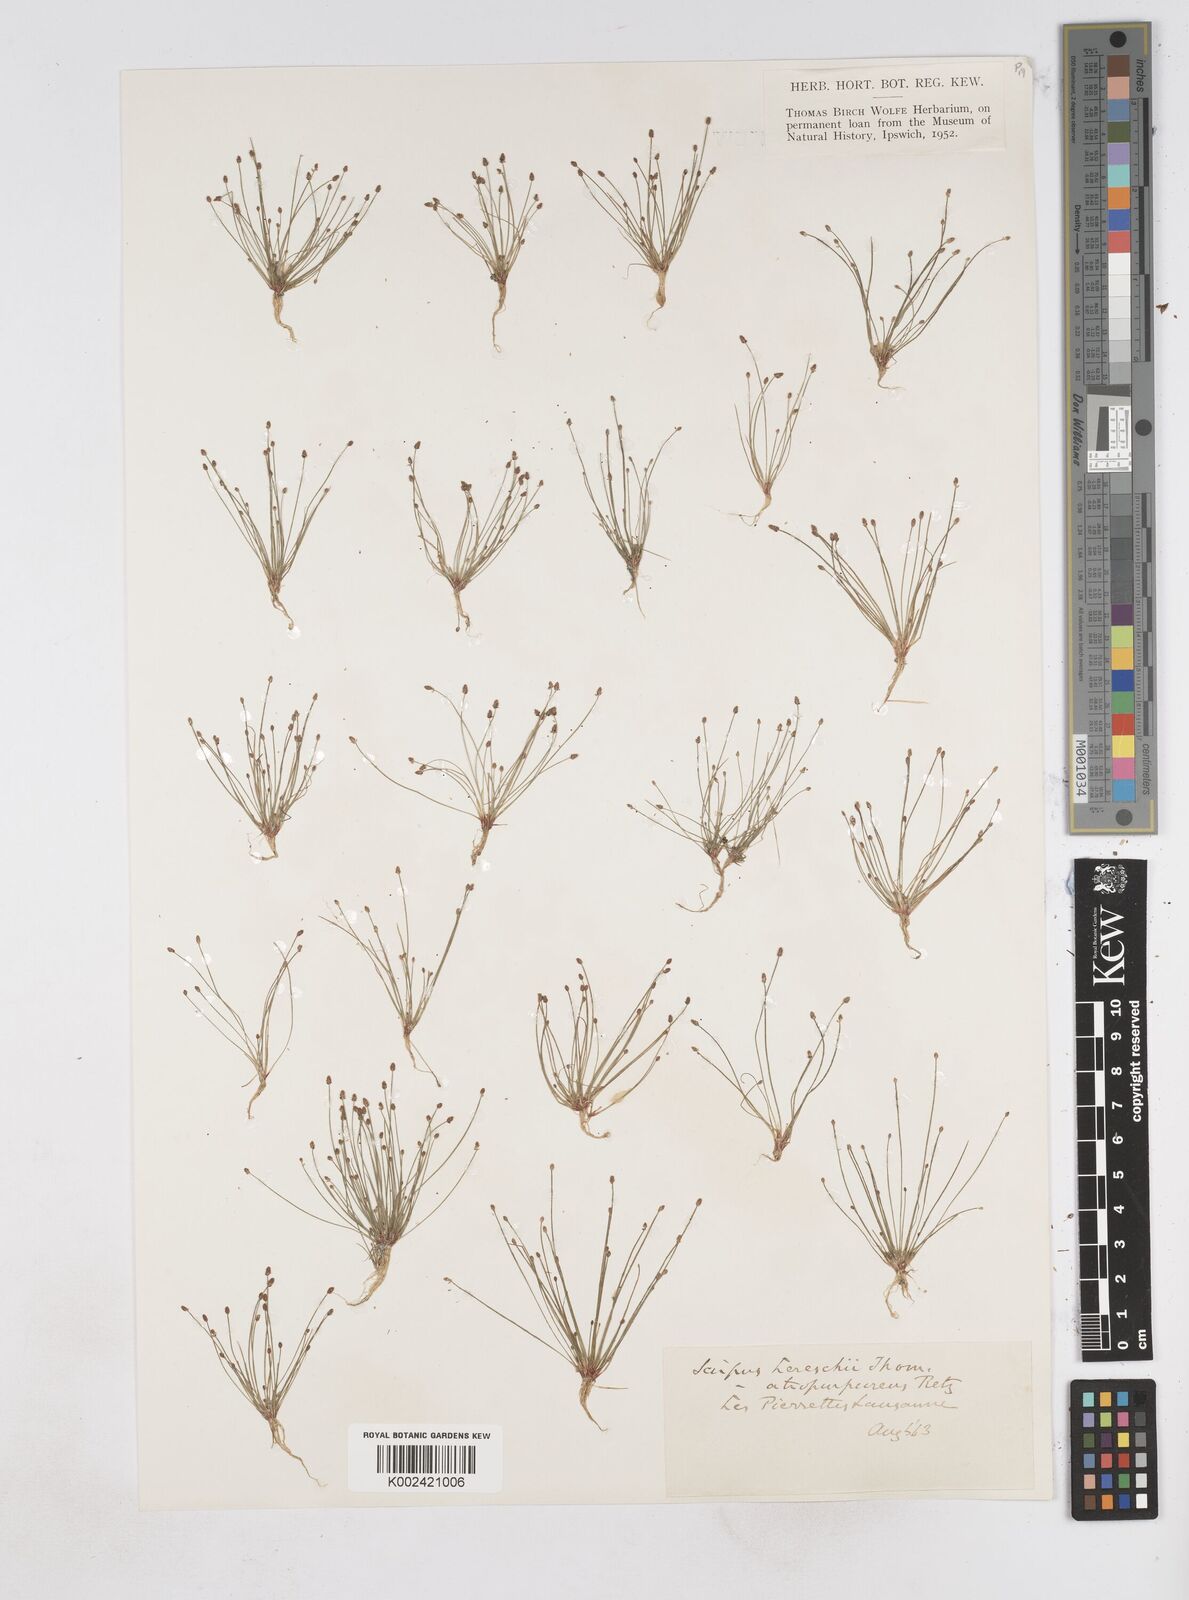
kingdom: Plantae
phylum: Tracheophyta
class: Liliopsida
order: Poales
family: Cyperaceae
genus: Eleocharis
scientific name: Eleocharis atropurpurea
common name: Purple spikerush
